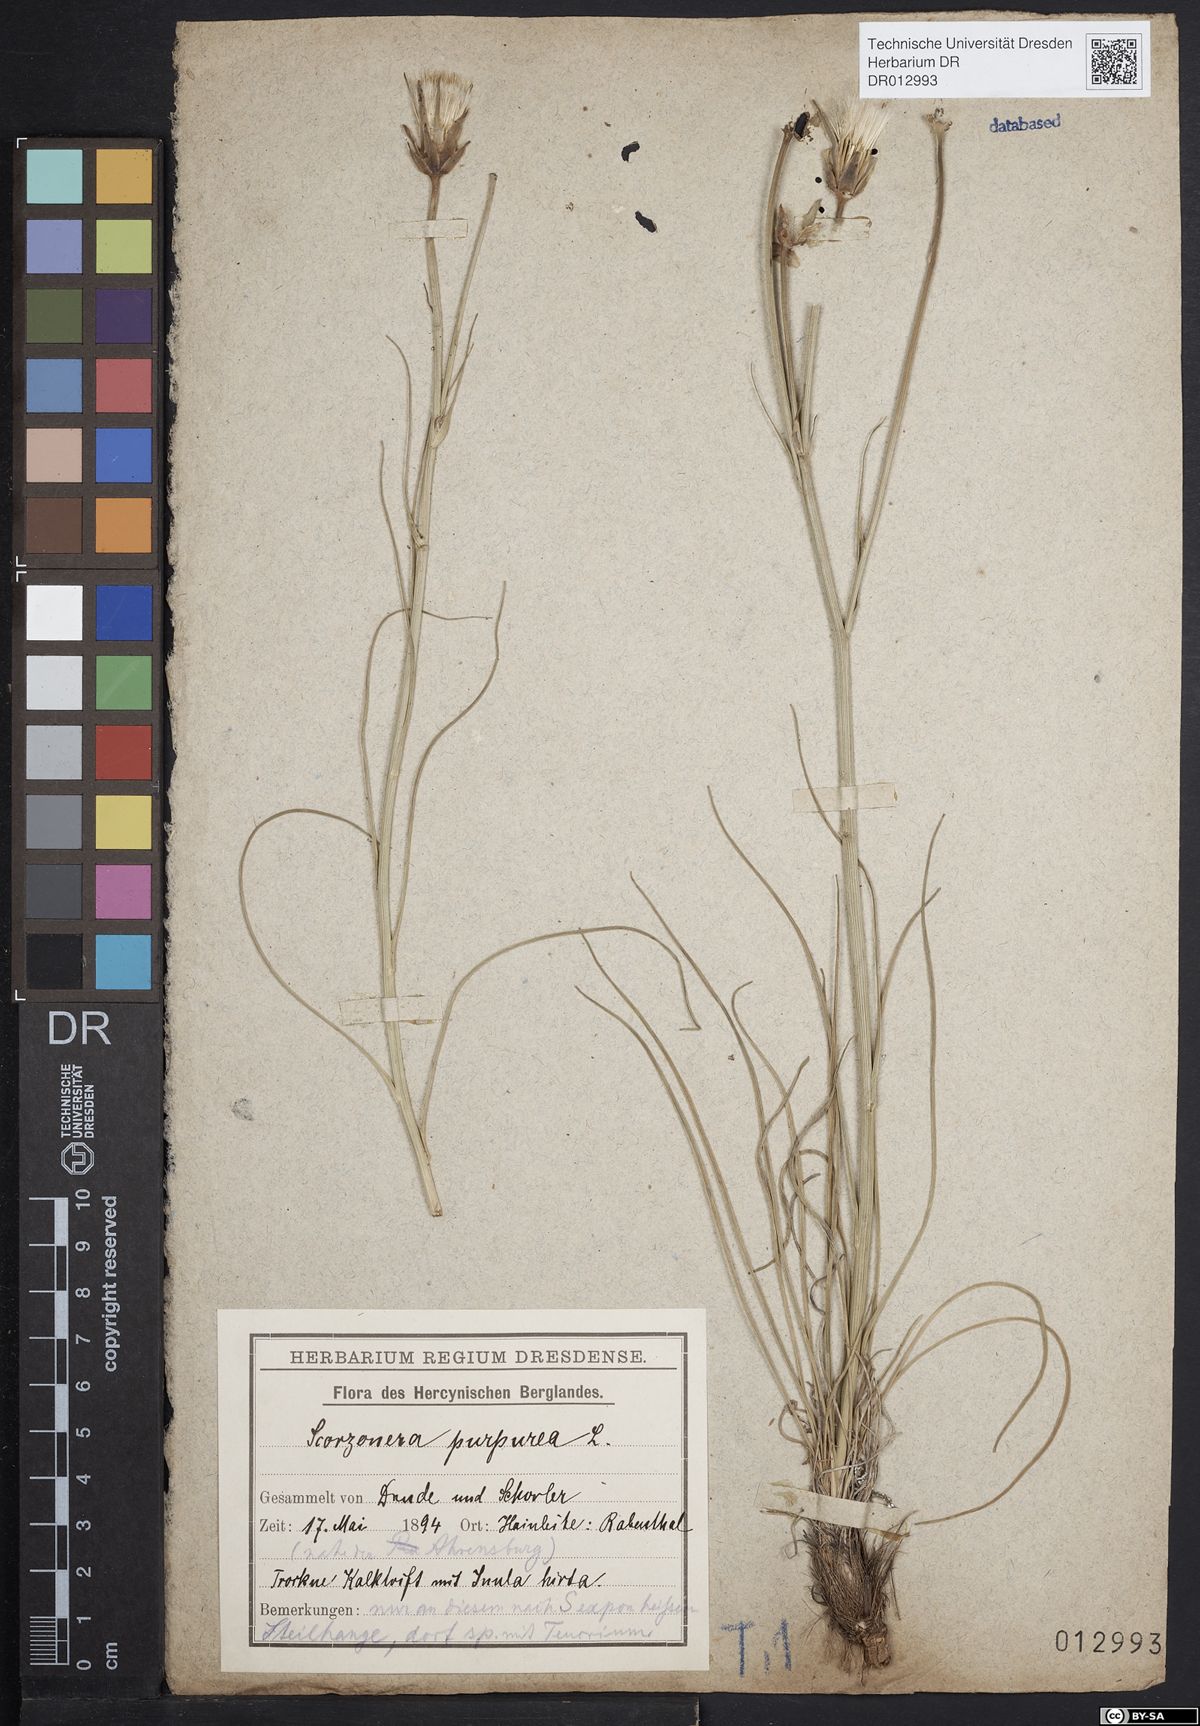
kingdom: Plantae
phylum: Tracheophyta
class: Magnoliopsida
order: Asterales
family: Asteraceae
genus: Scorzonera
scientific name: Scorzonera purpurea
